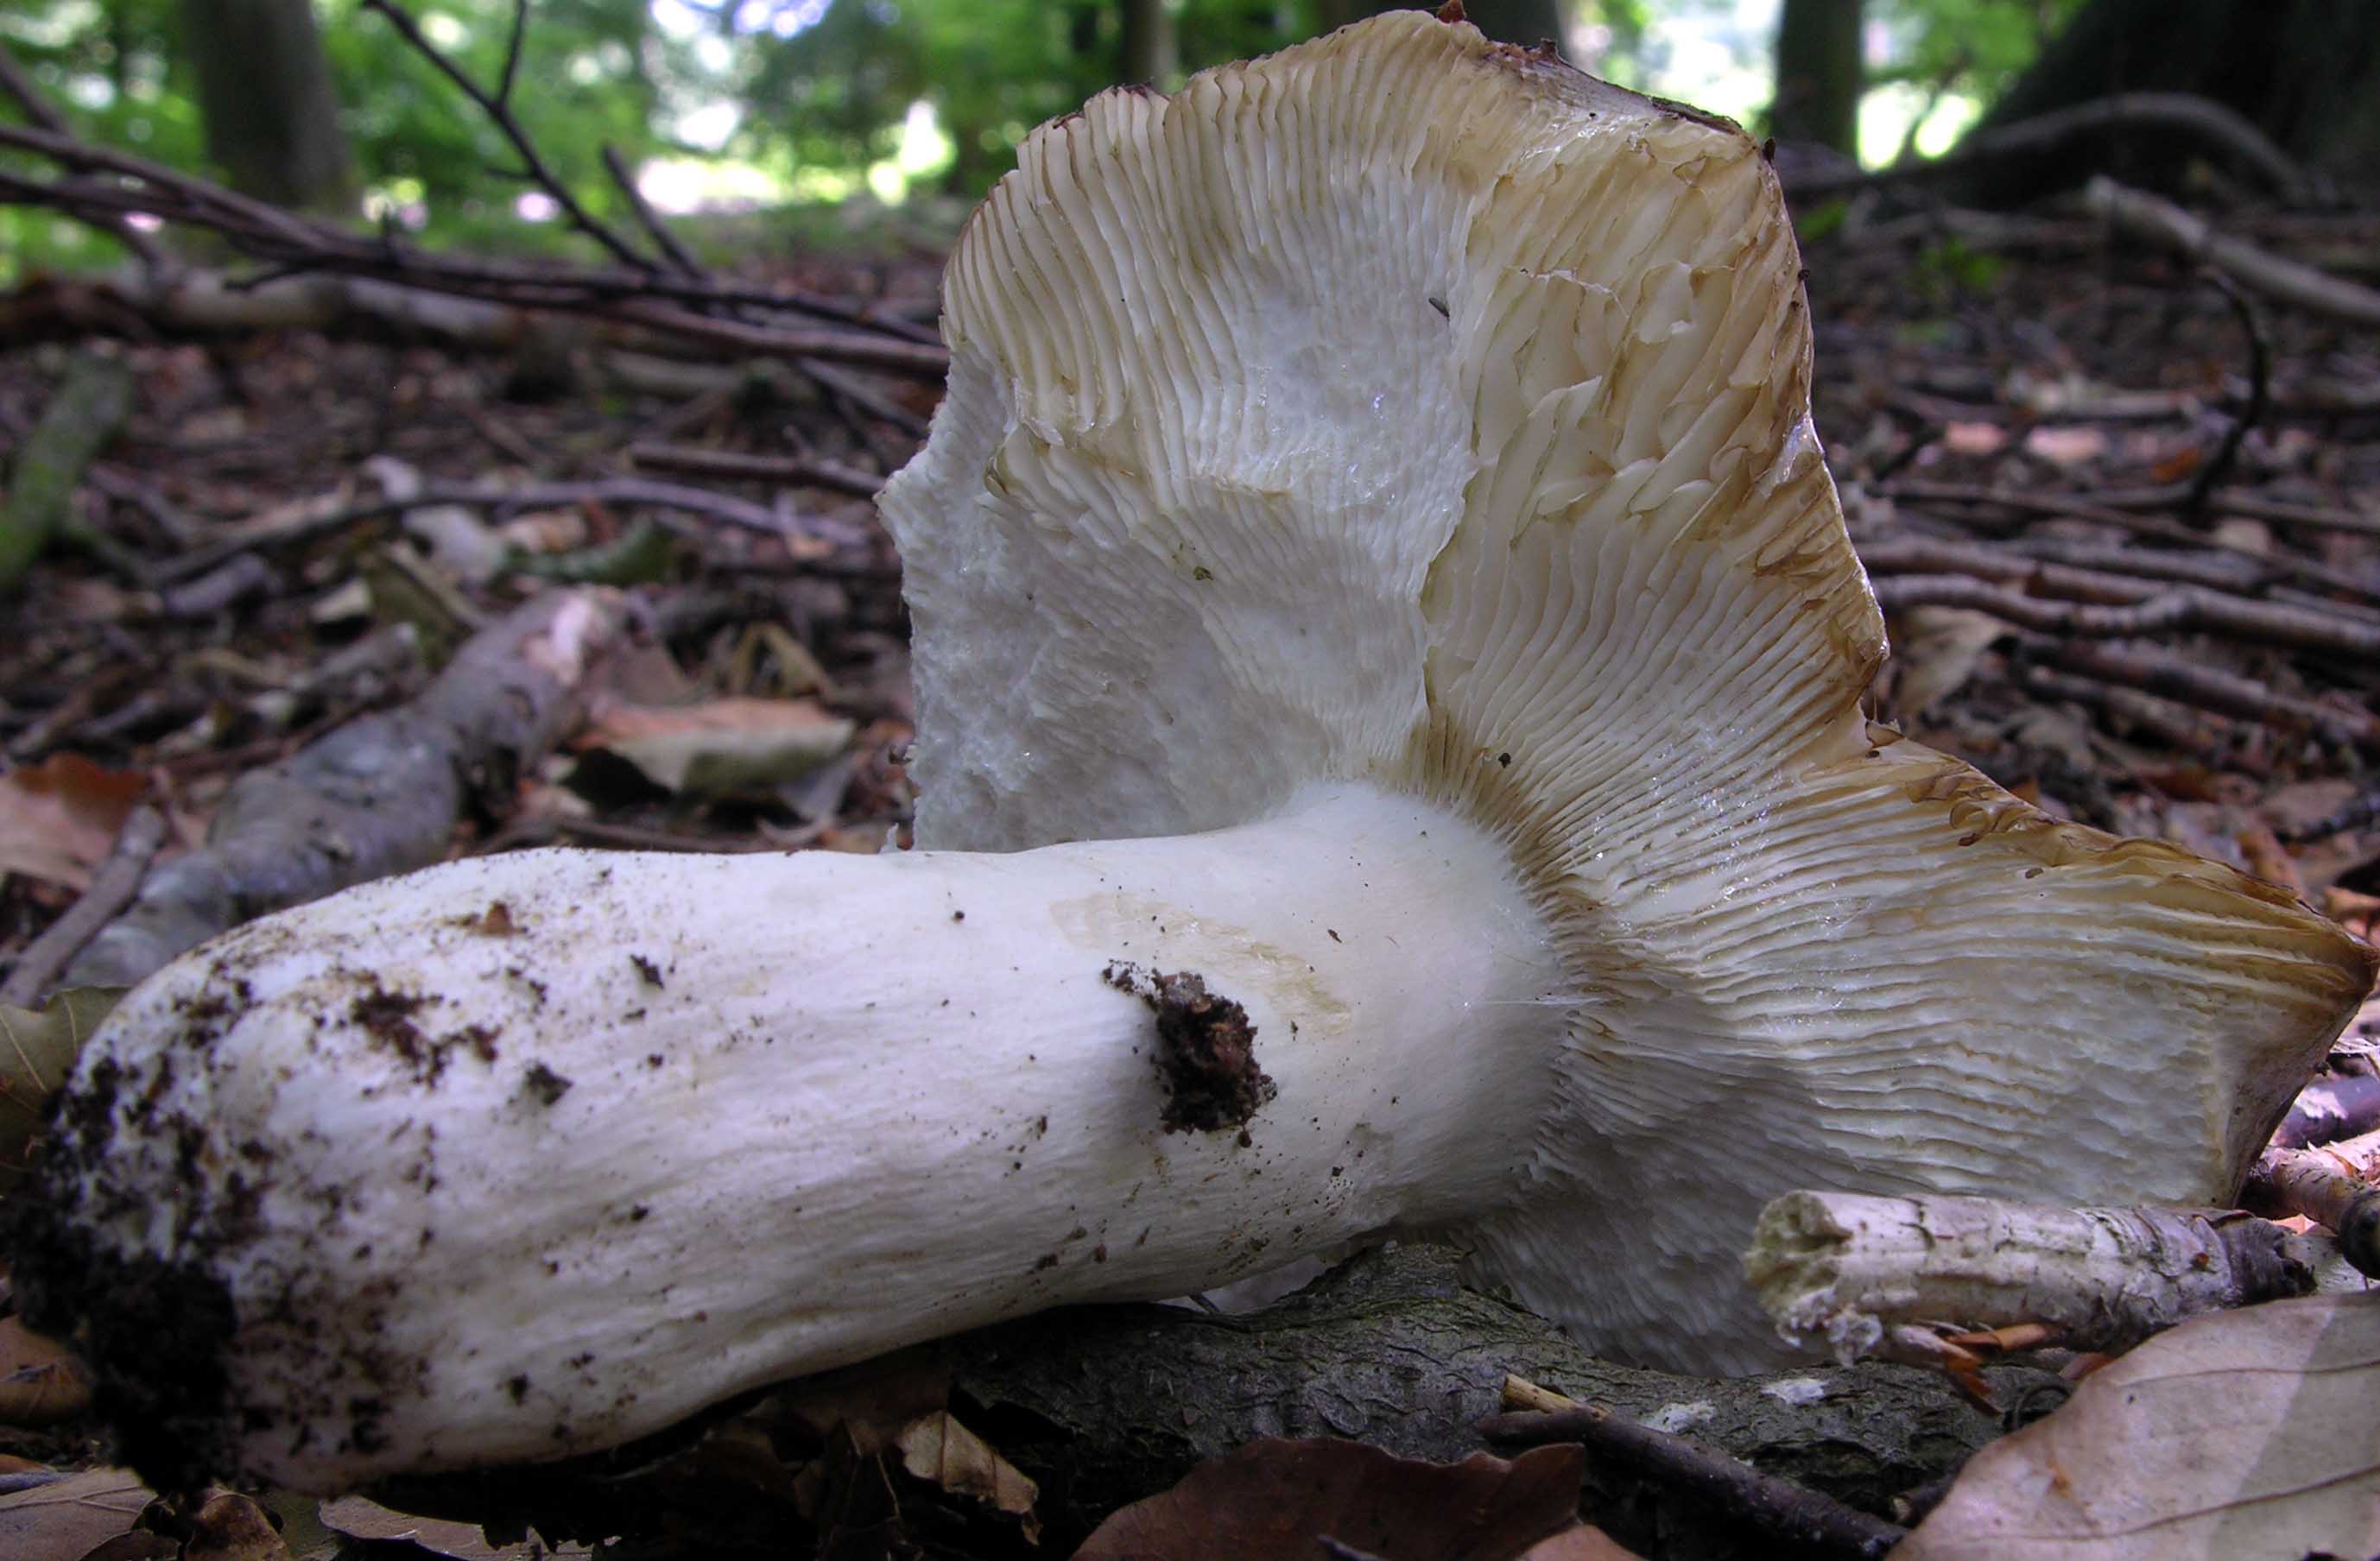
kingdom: Fungi
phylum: Basidiomycota
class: Agaricomycetes
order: Russulales
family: Russulaceae
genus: Russula
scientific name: Russula cyanoxantha
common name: broget skørhat
